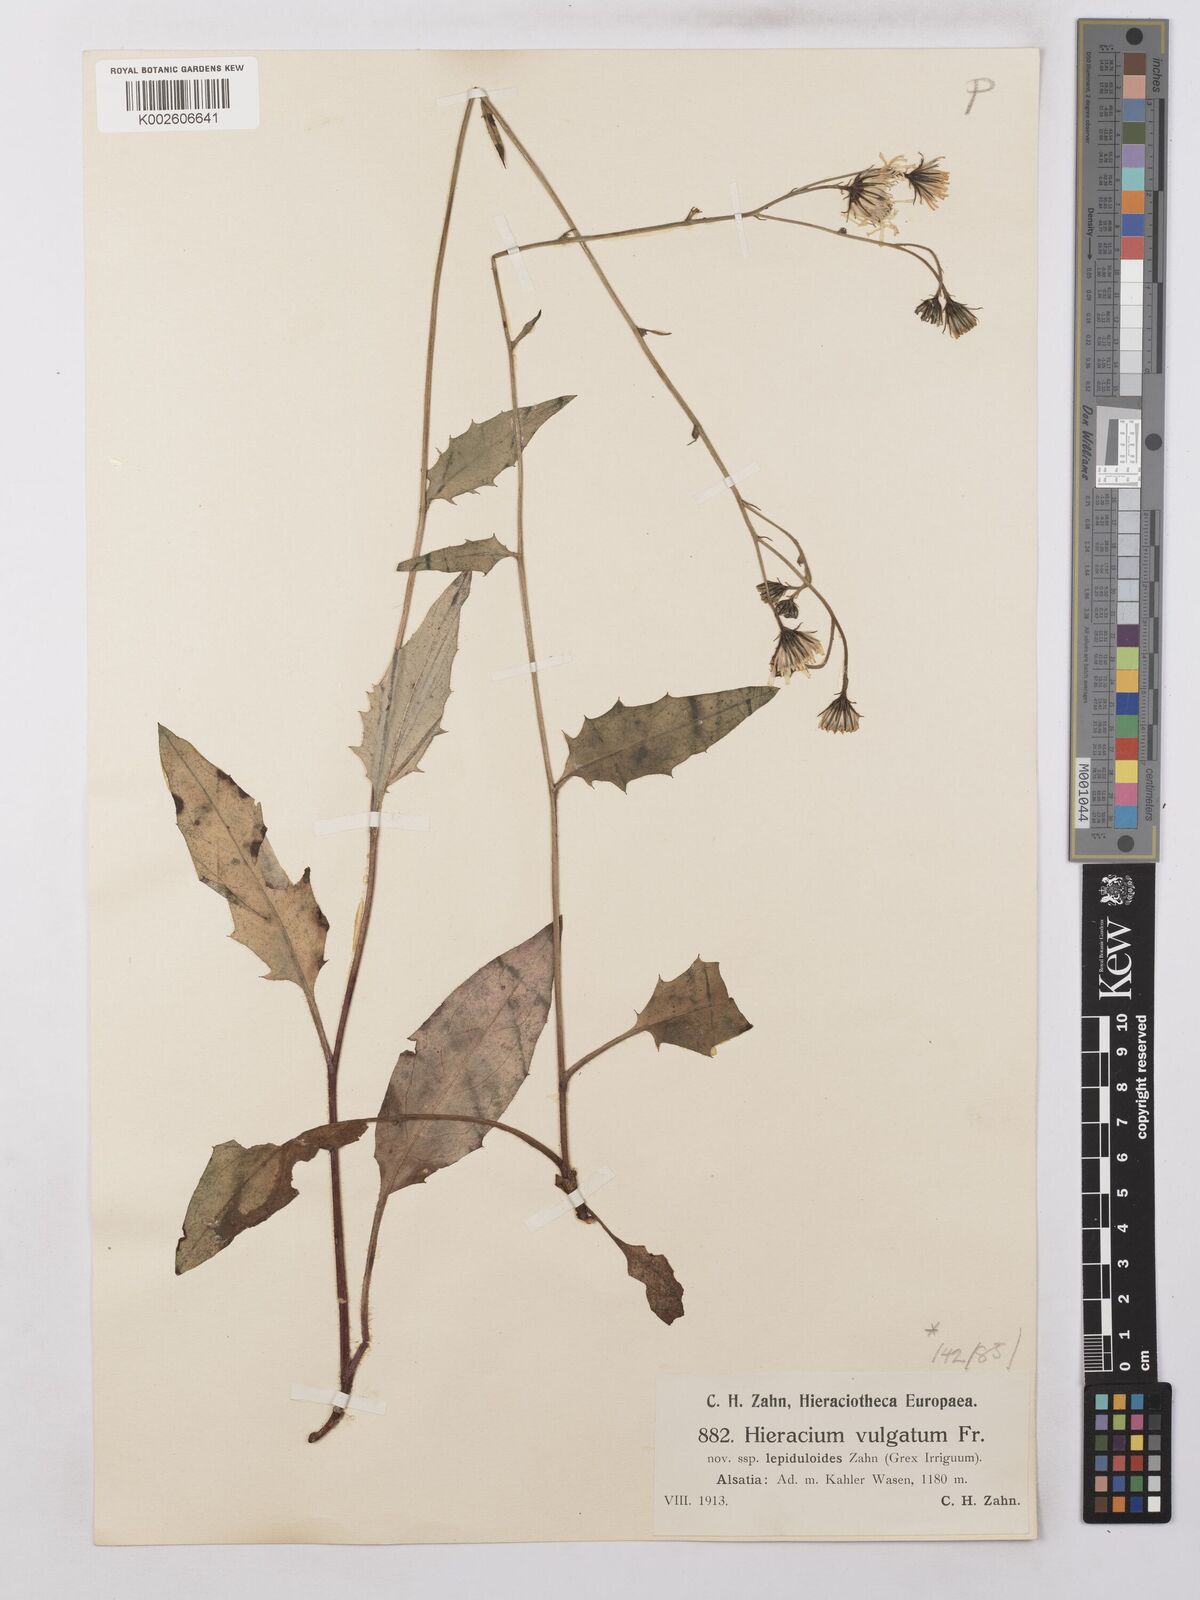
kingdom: Plantae
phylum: Tracheophyta
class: Magnoliopsida
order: Asterales
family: Asteraceae
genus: Hieracium
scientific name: Hieracium lachenalii
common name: Common hawkweed
